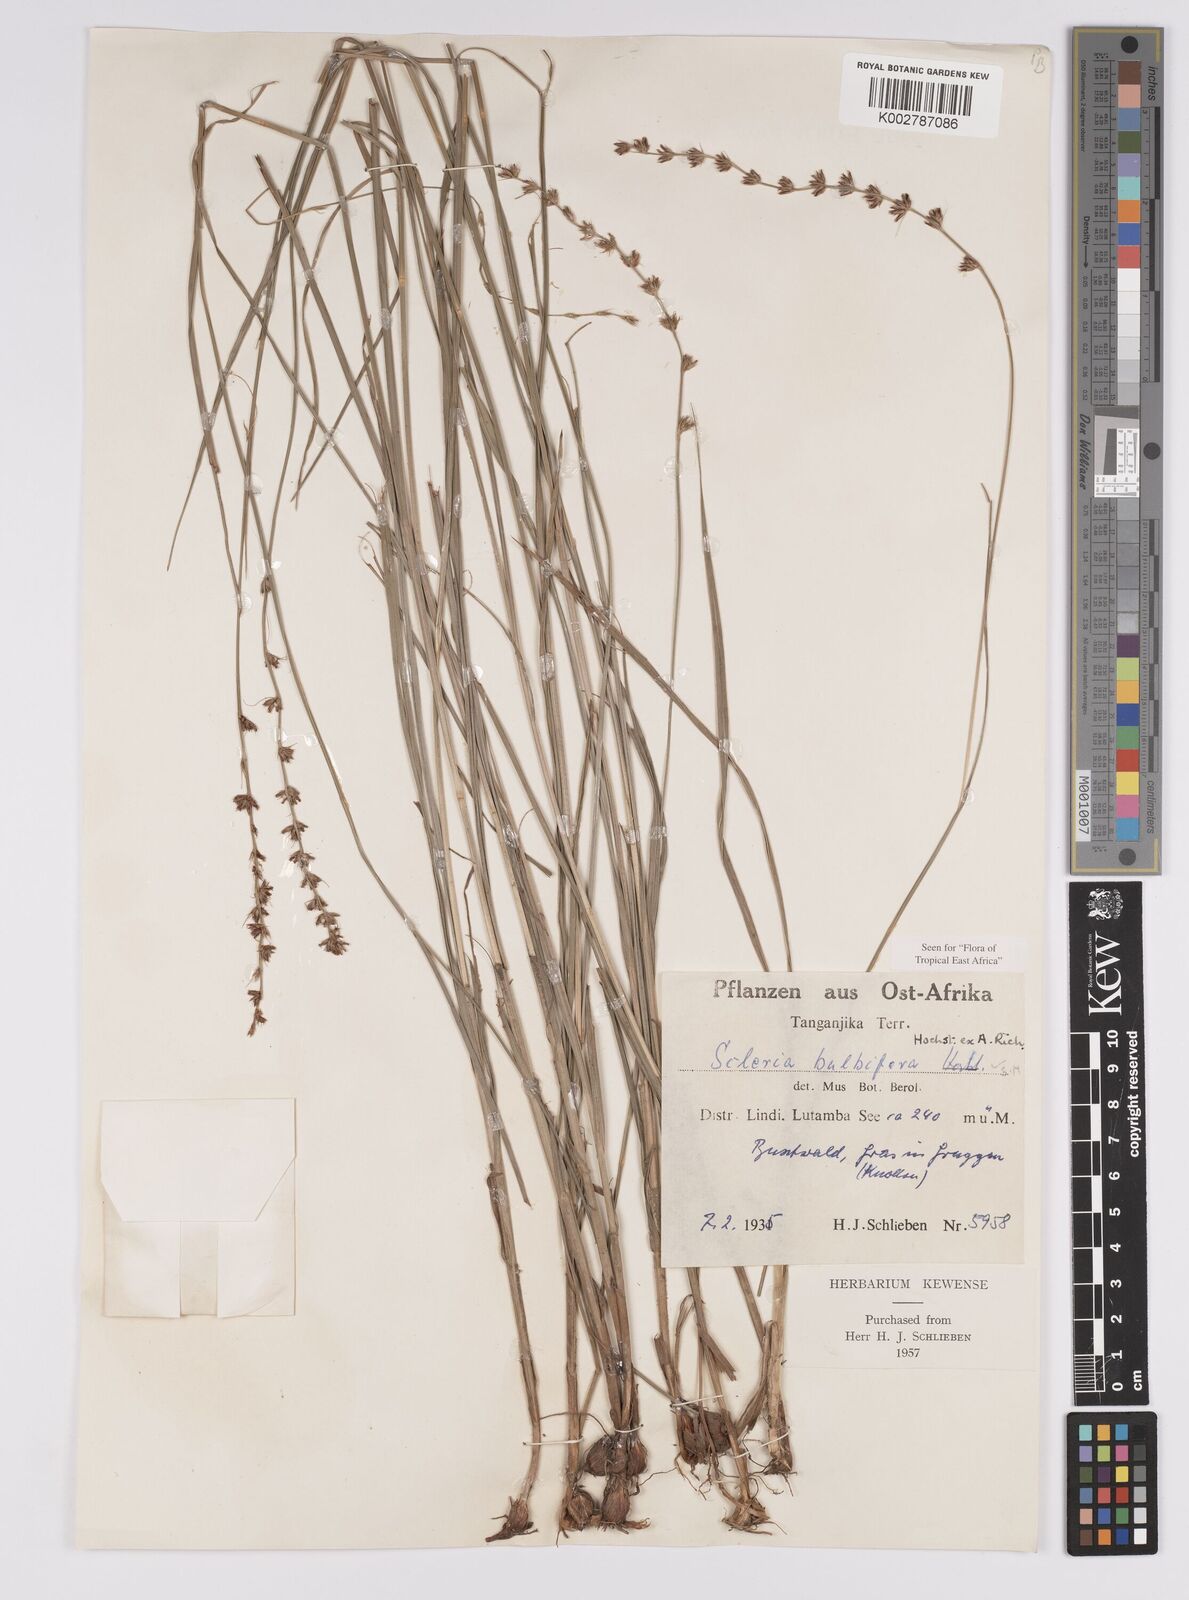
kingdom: Plantae
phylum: Tracheophyta
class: Liliopsida
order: Poales
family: Cyperaceae
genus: Scleria
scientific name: Scleria bulbifera
